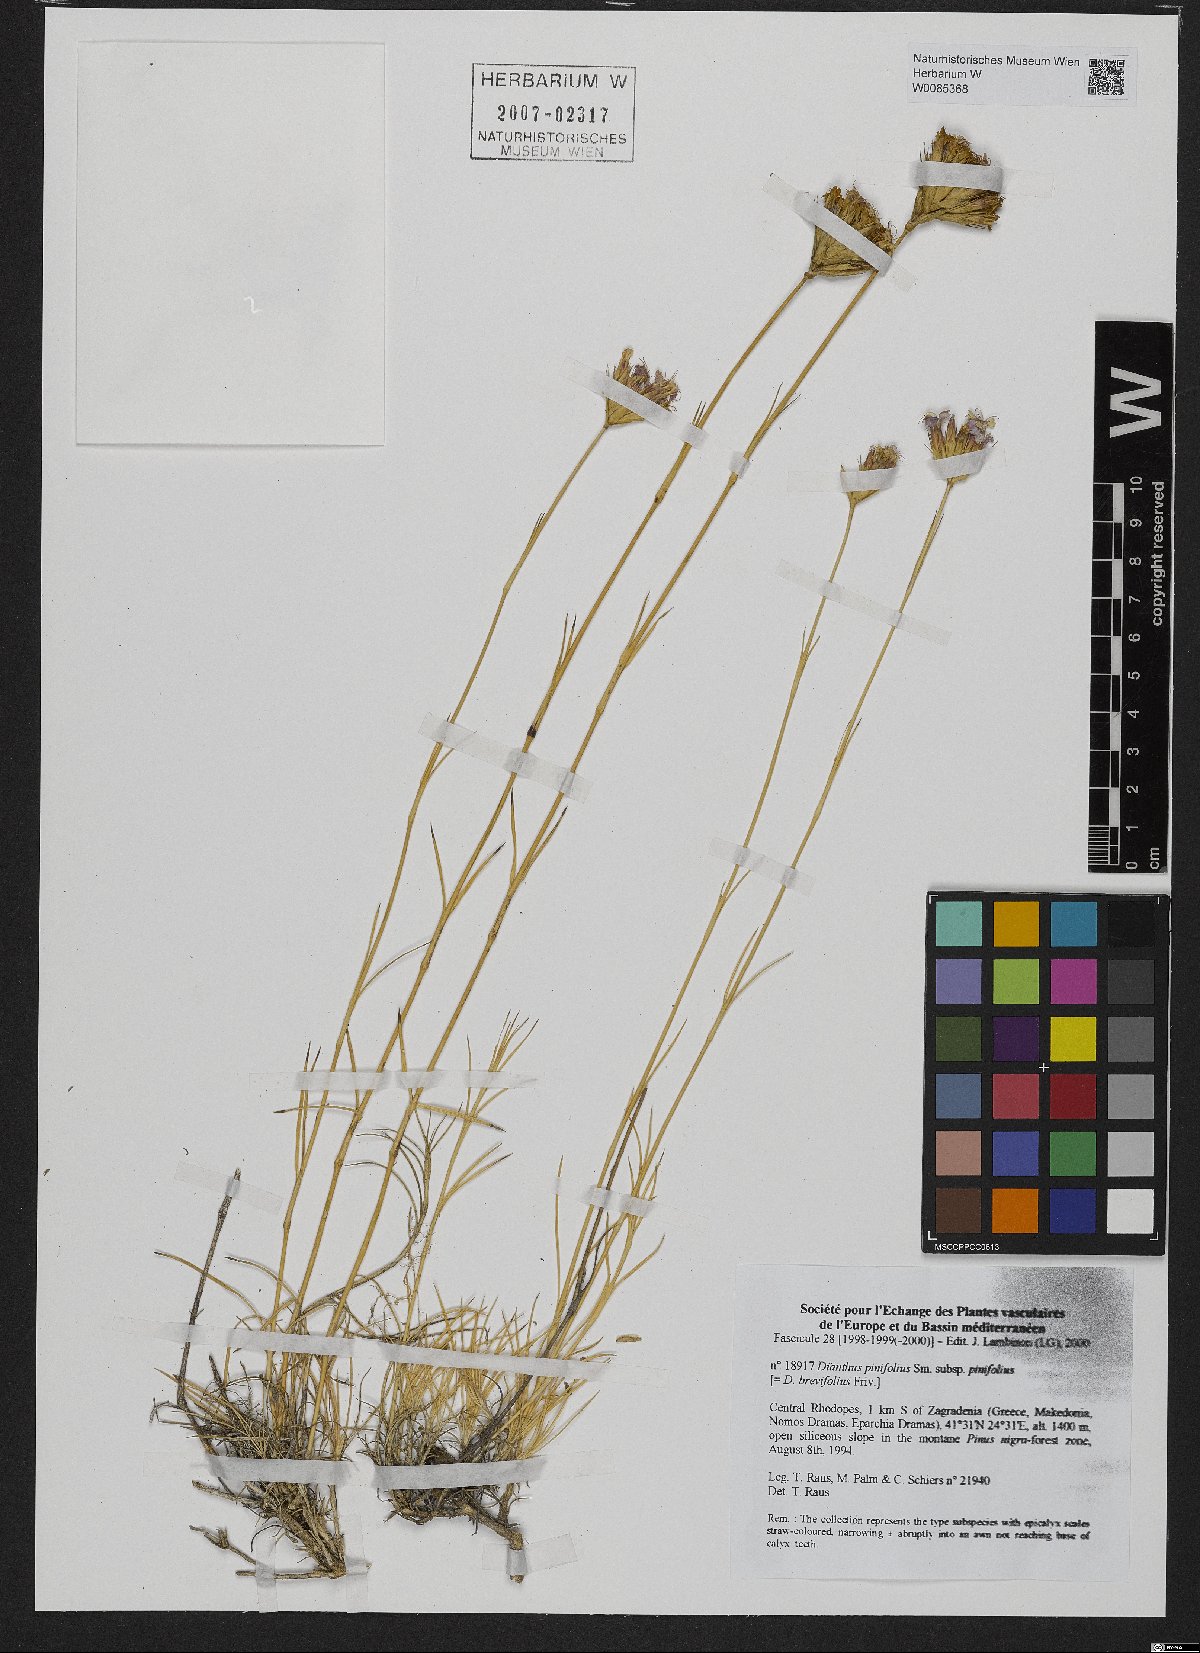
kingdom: Plantae
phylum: Tracheophyta
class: Magnoliopsida
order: Caryophyllales
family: Caryophyllaceae
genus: Dianthus
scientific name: Dianthus pinifolius
